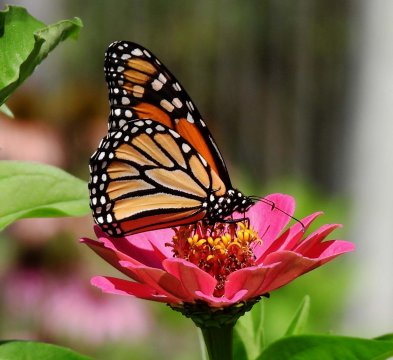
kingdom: Animalia
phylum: Arthropoda
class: Insecta
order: Lepidoptera
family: Nymphalidae
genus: Danaus
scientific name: Danaus plexippus
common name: Monarch
